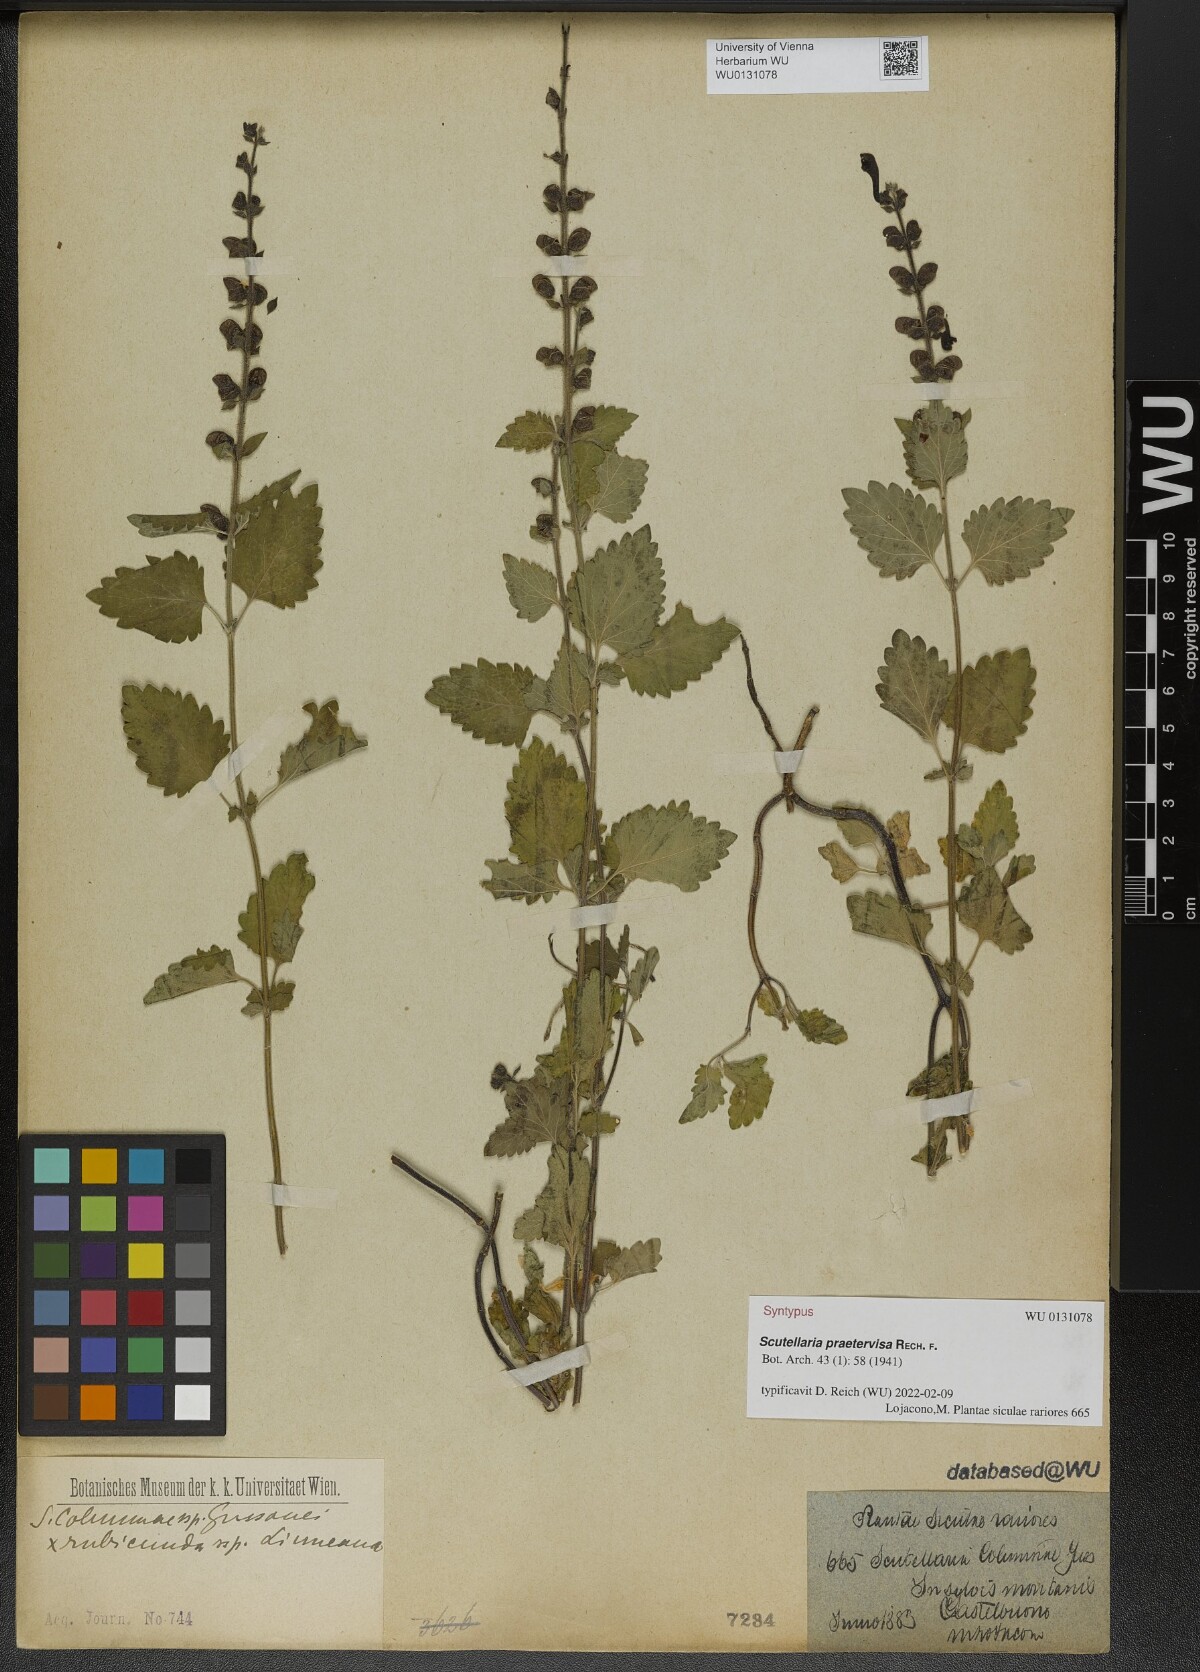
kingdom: Plantae
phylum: Tracheophyta
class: Magnoliopsida
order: Lamiales
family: Lamiaceae
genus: Scutellaria
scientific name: Scutellaria praetervisa
